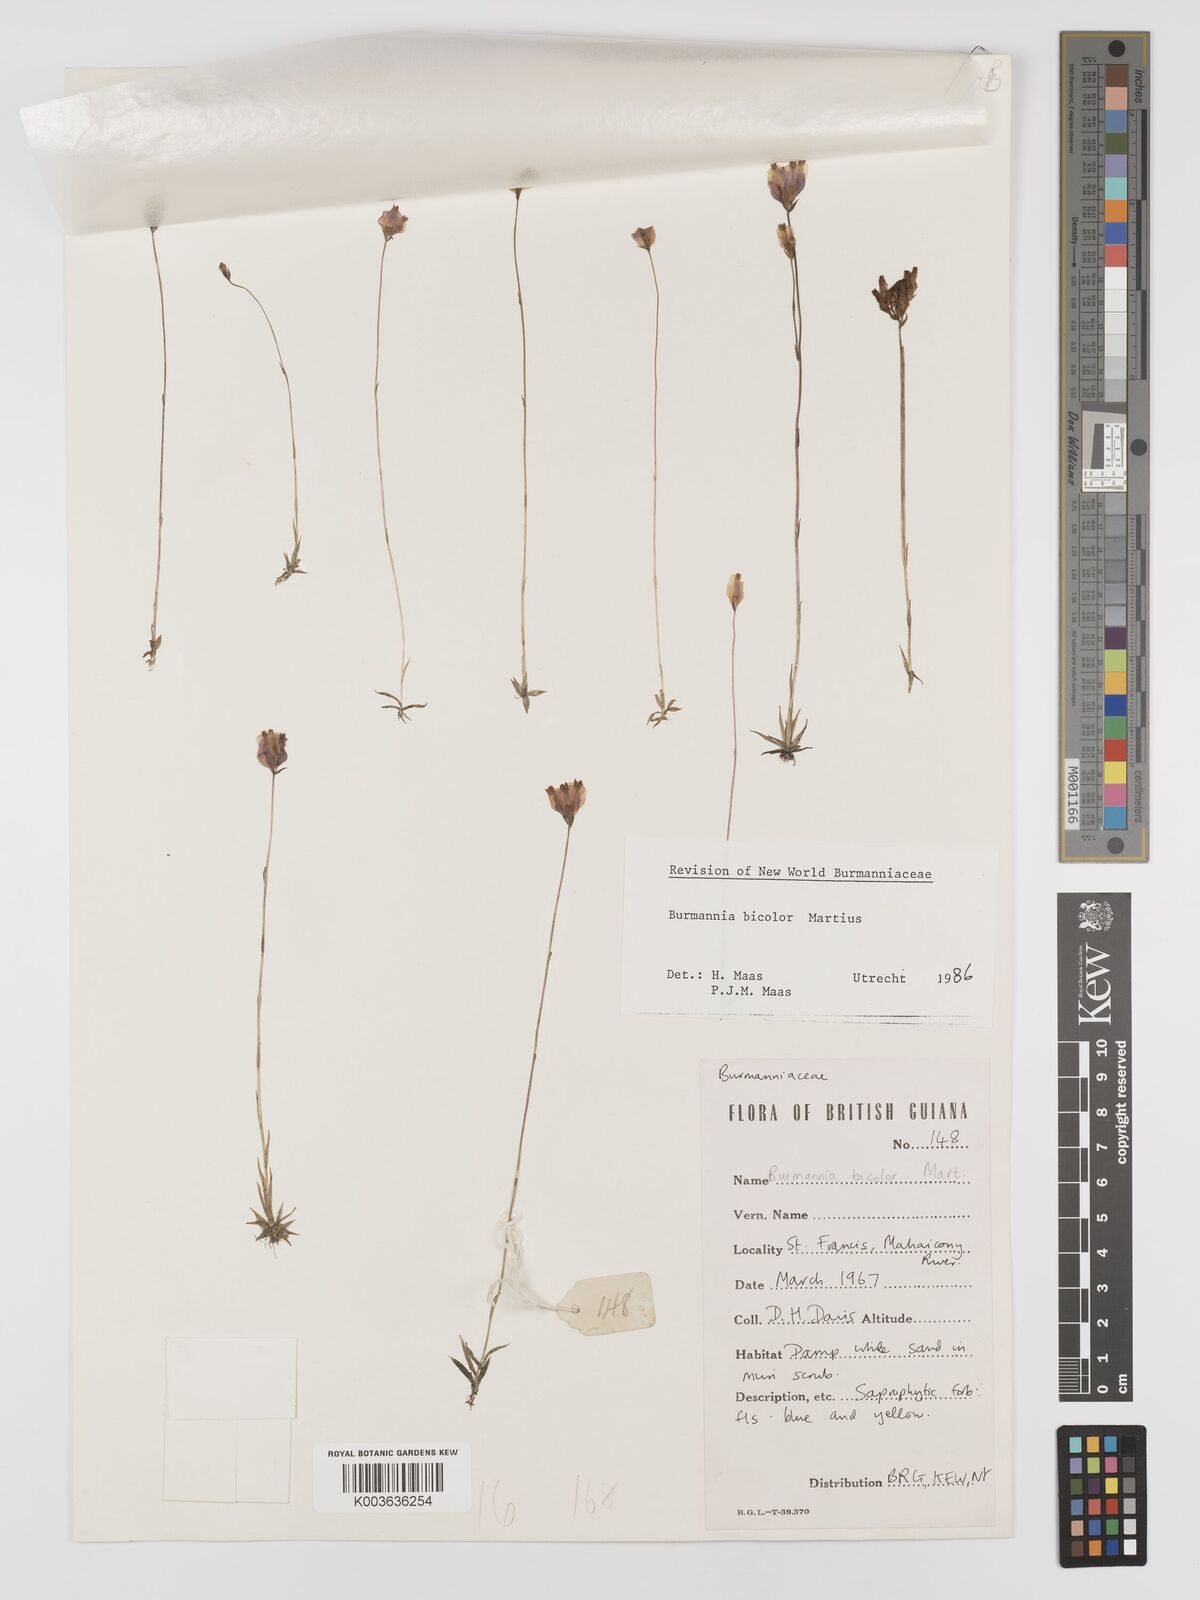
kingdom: Plantae
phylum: Tracheophyta
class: Liliopsida
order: Dioscoreales
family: Burmanniaceae
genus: Burmannia
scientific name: Burmannia bicolor
